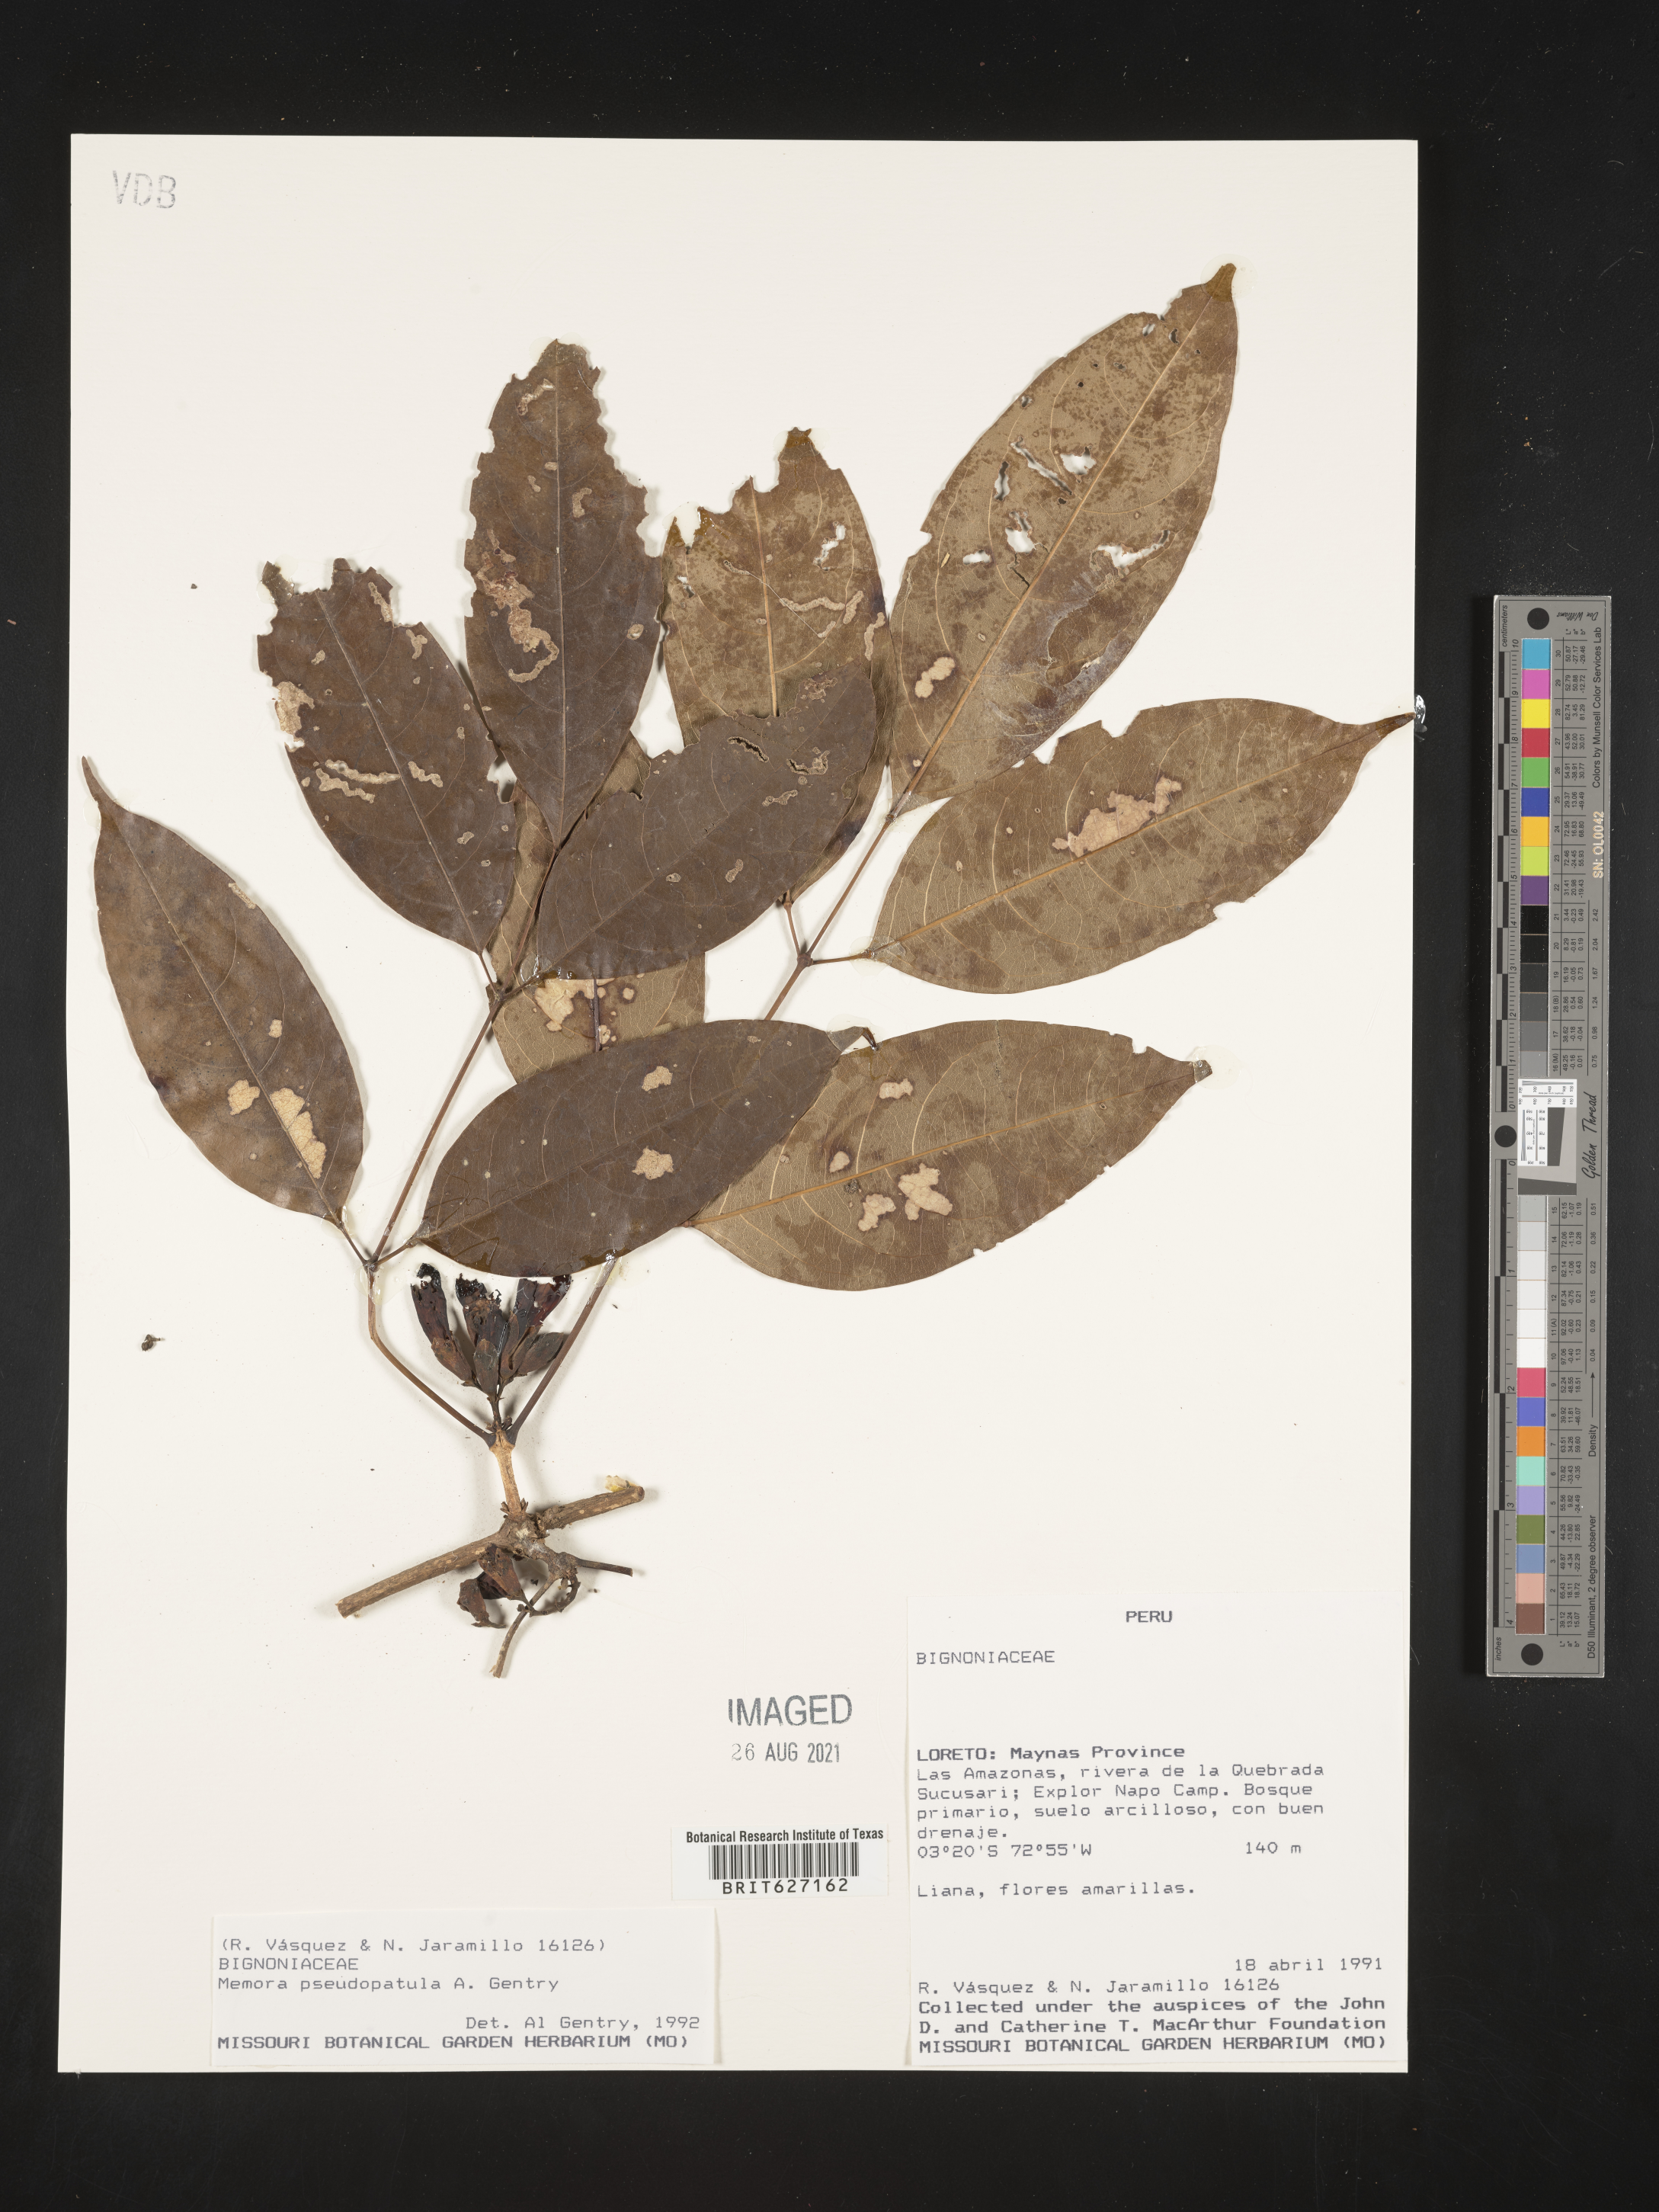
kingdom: Plantae
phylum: Tracheophyta
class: Magnoliopsida
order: Lamiales
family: Bignoniaceae
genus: Adenocalymma
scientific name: Adenocalymma pseudopatulum
